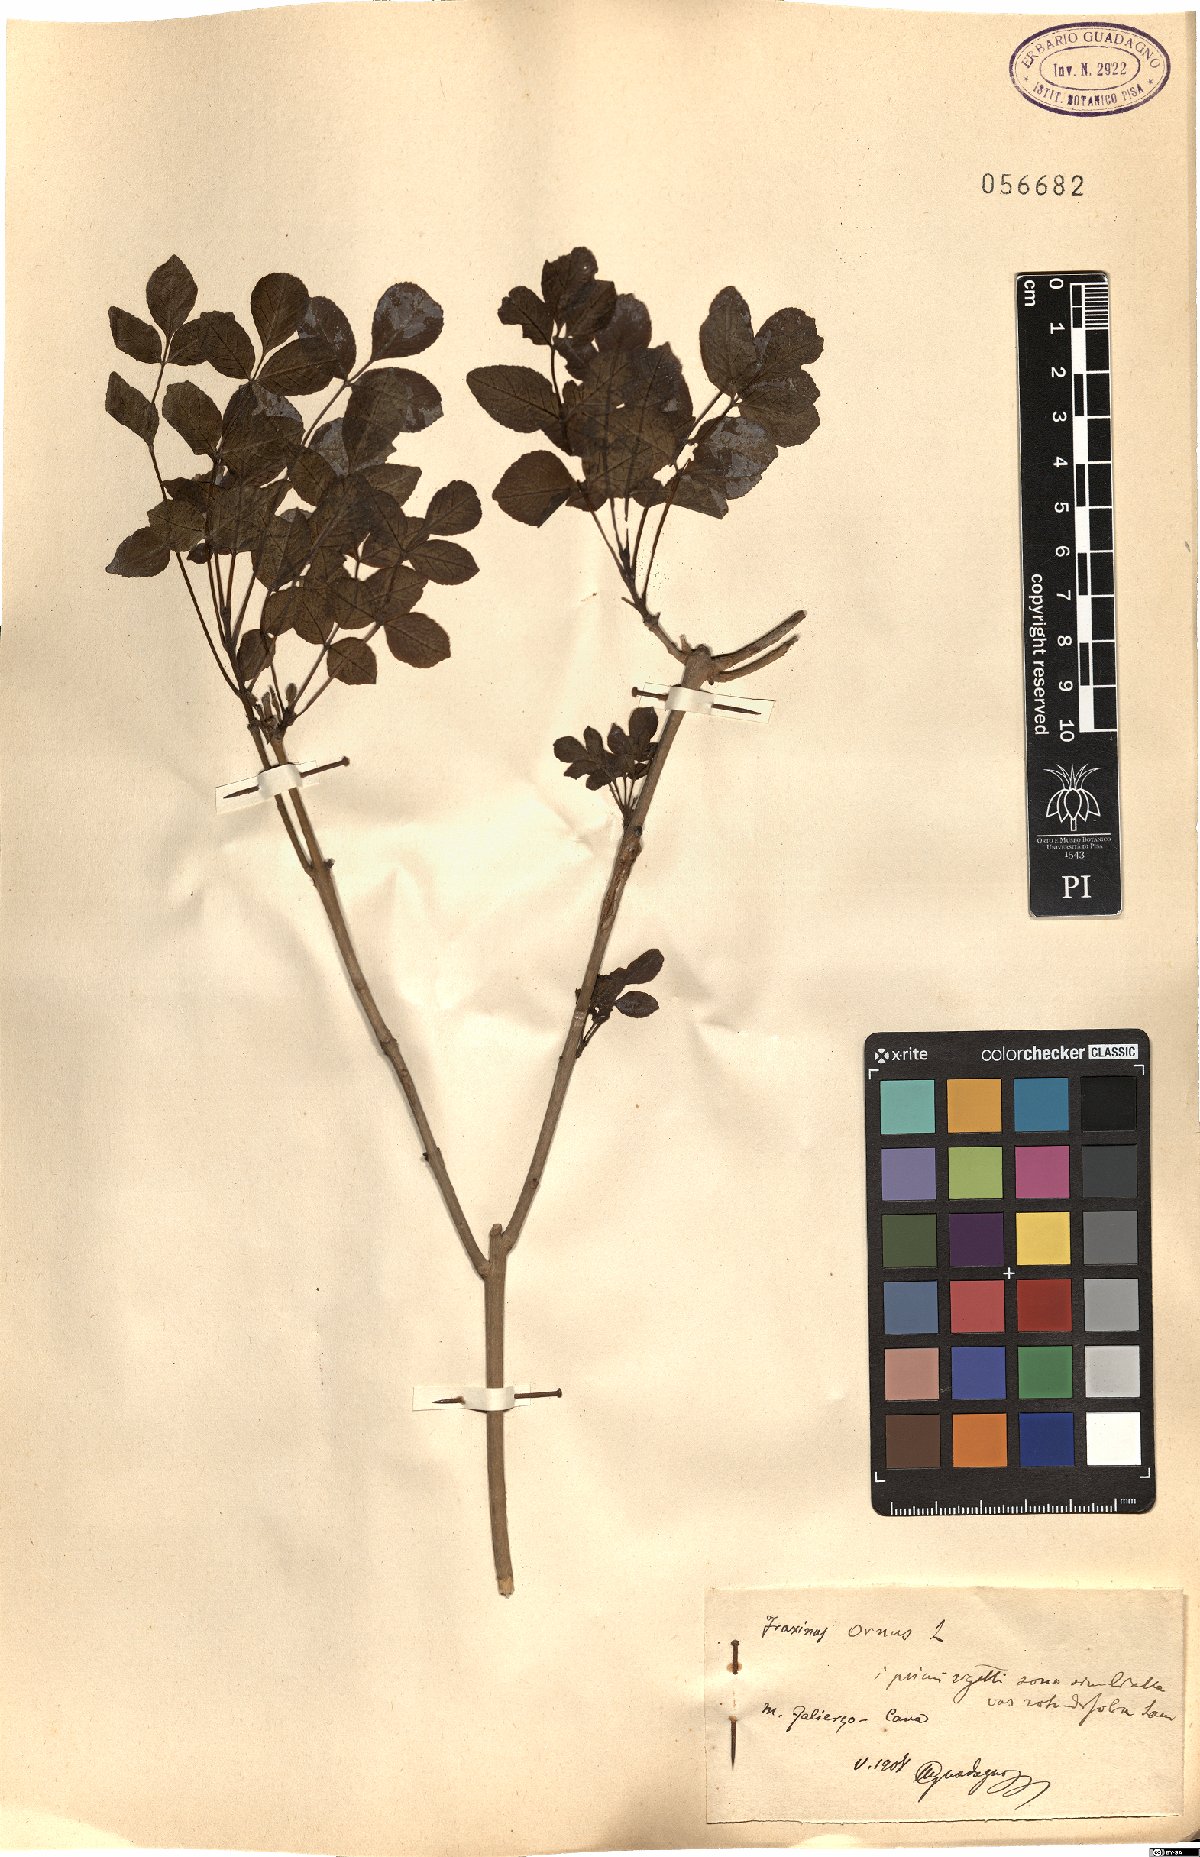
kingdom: Plantae
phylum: Tracheophyta
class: Magnoliopsida
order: Lamiales
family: Oleaceae
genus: Fraxinus
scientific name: Fraxinus ornus
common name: Manna ash
